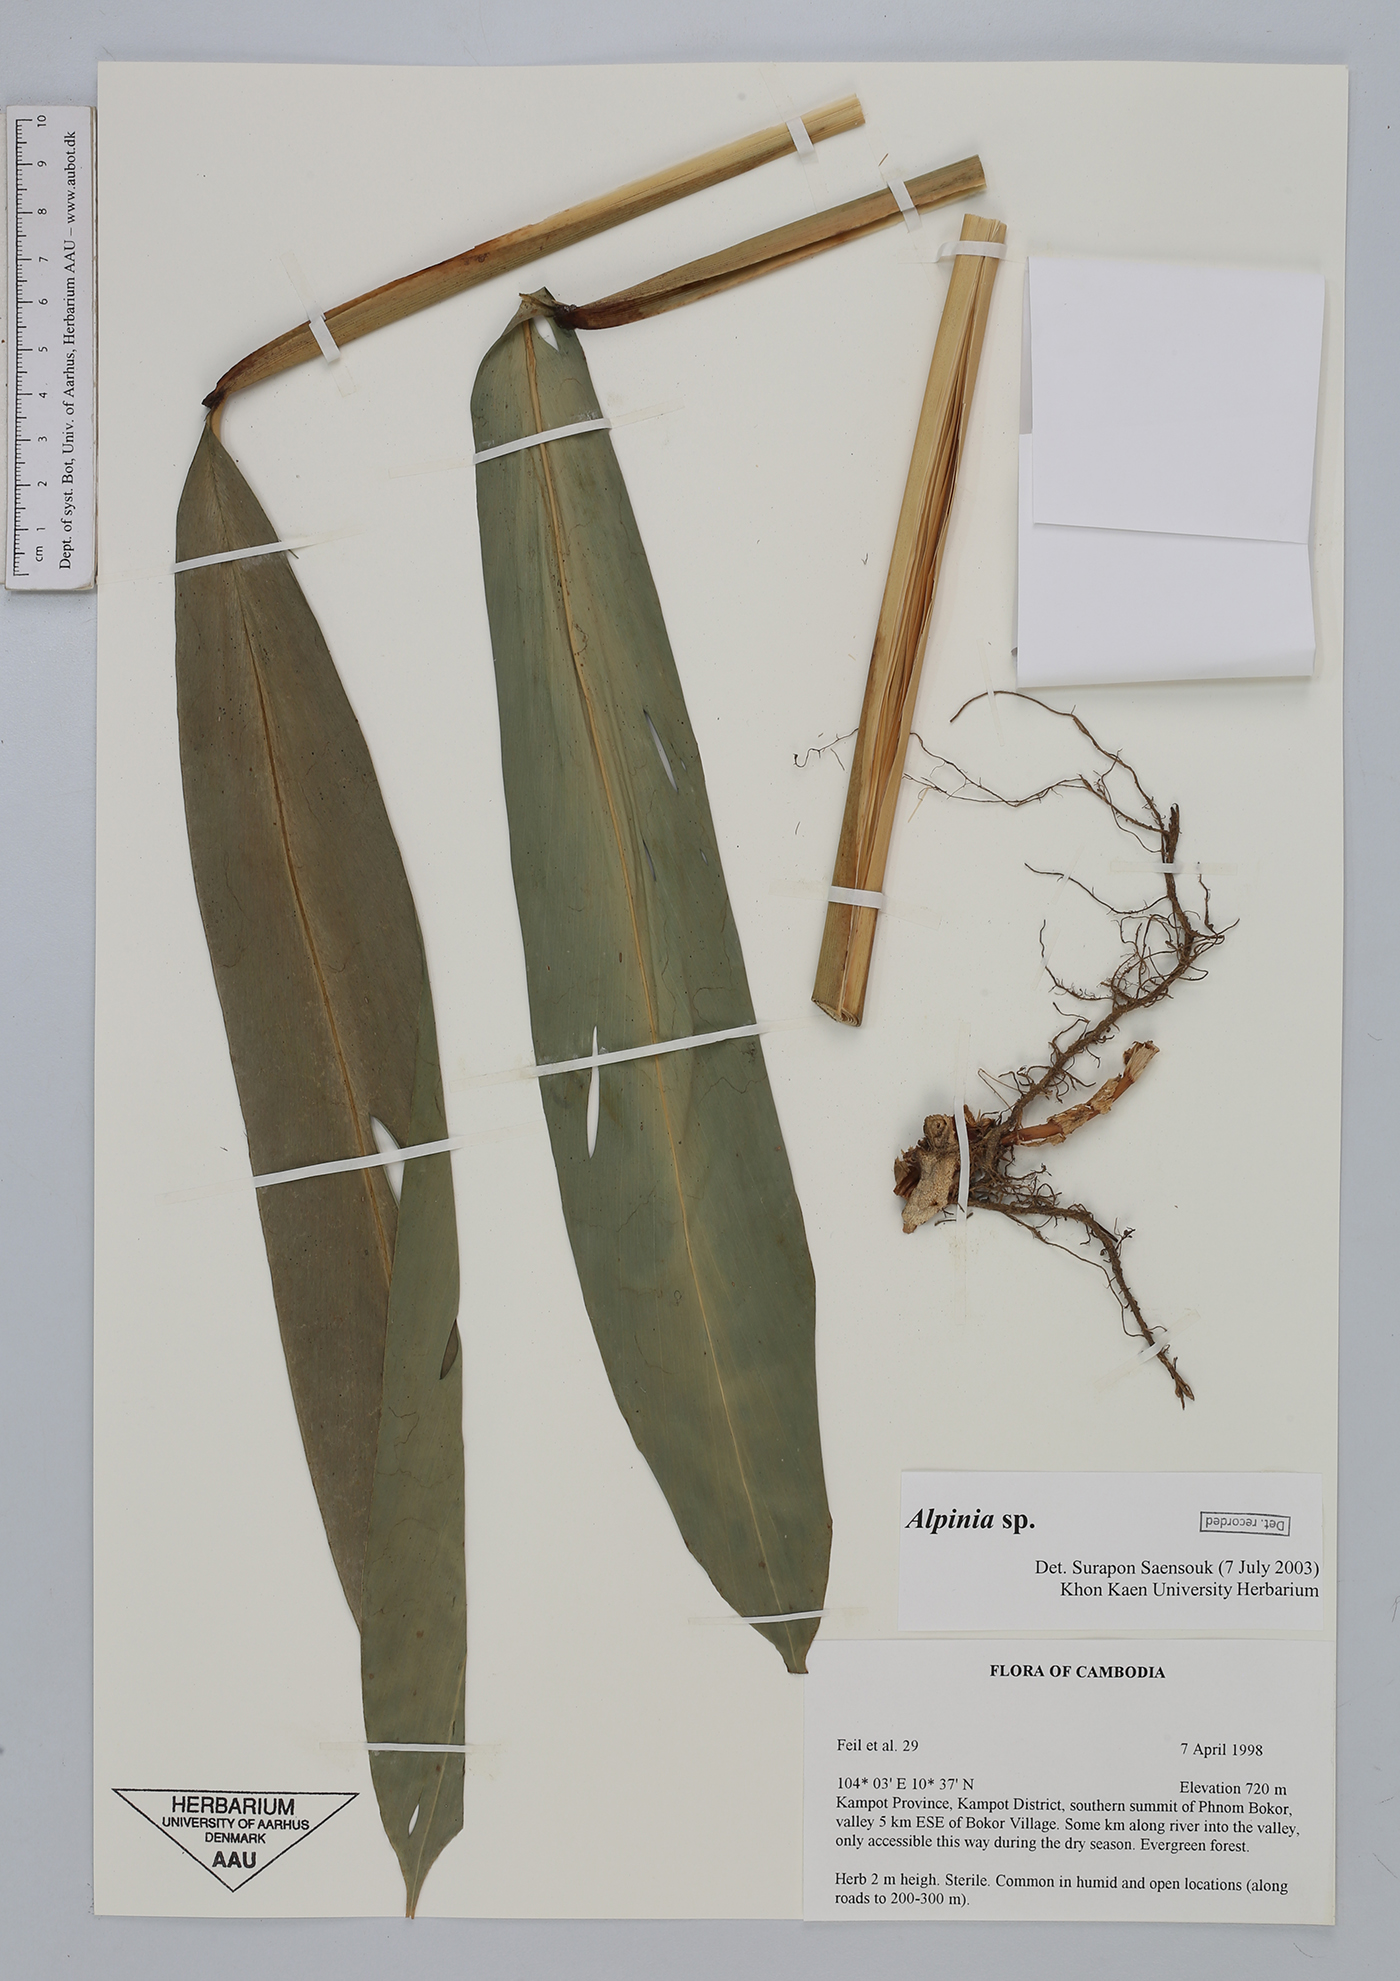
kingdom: Plantae
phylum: Tracheophyta
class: Liliopsida
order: Zingiberales
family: Zingiberaceae
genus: Alpinia
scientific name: Alpinia
